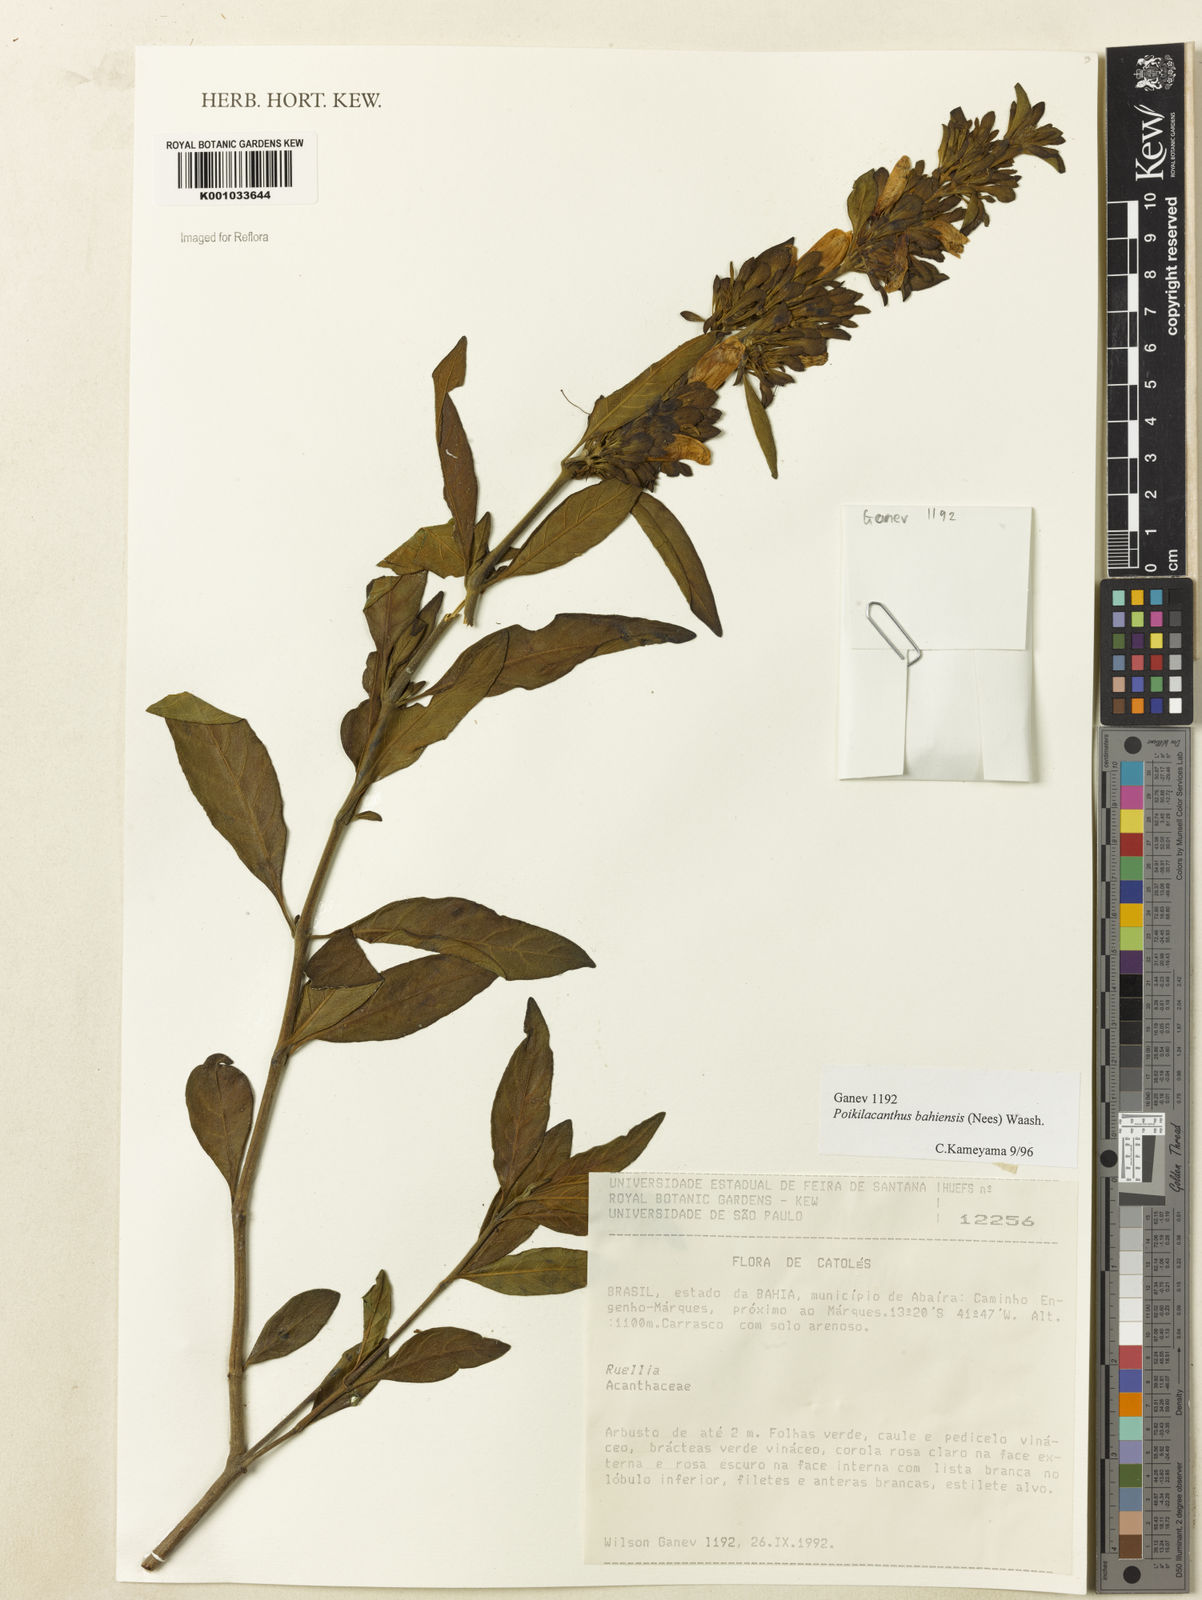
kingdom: Plantae
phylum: Tracheophyta
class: Magnoliopsida
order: Lamiales
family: Acanthaceae
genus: Poikilacanthus
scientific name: Poikilacanthus bahiensis
